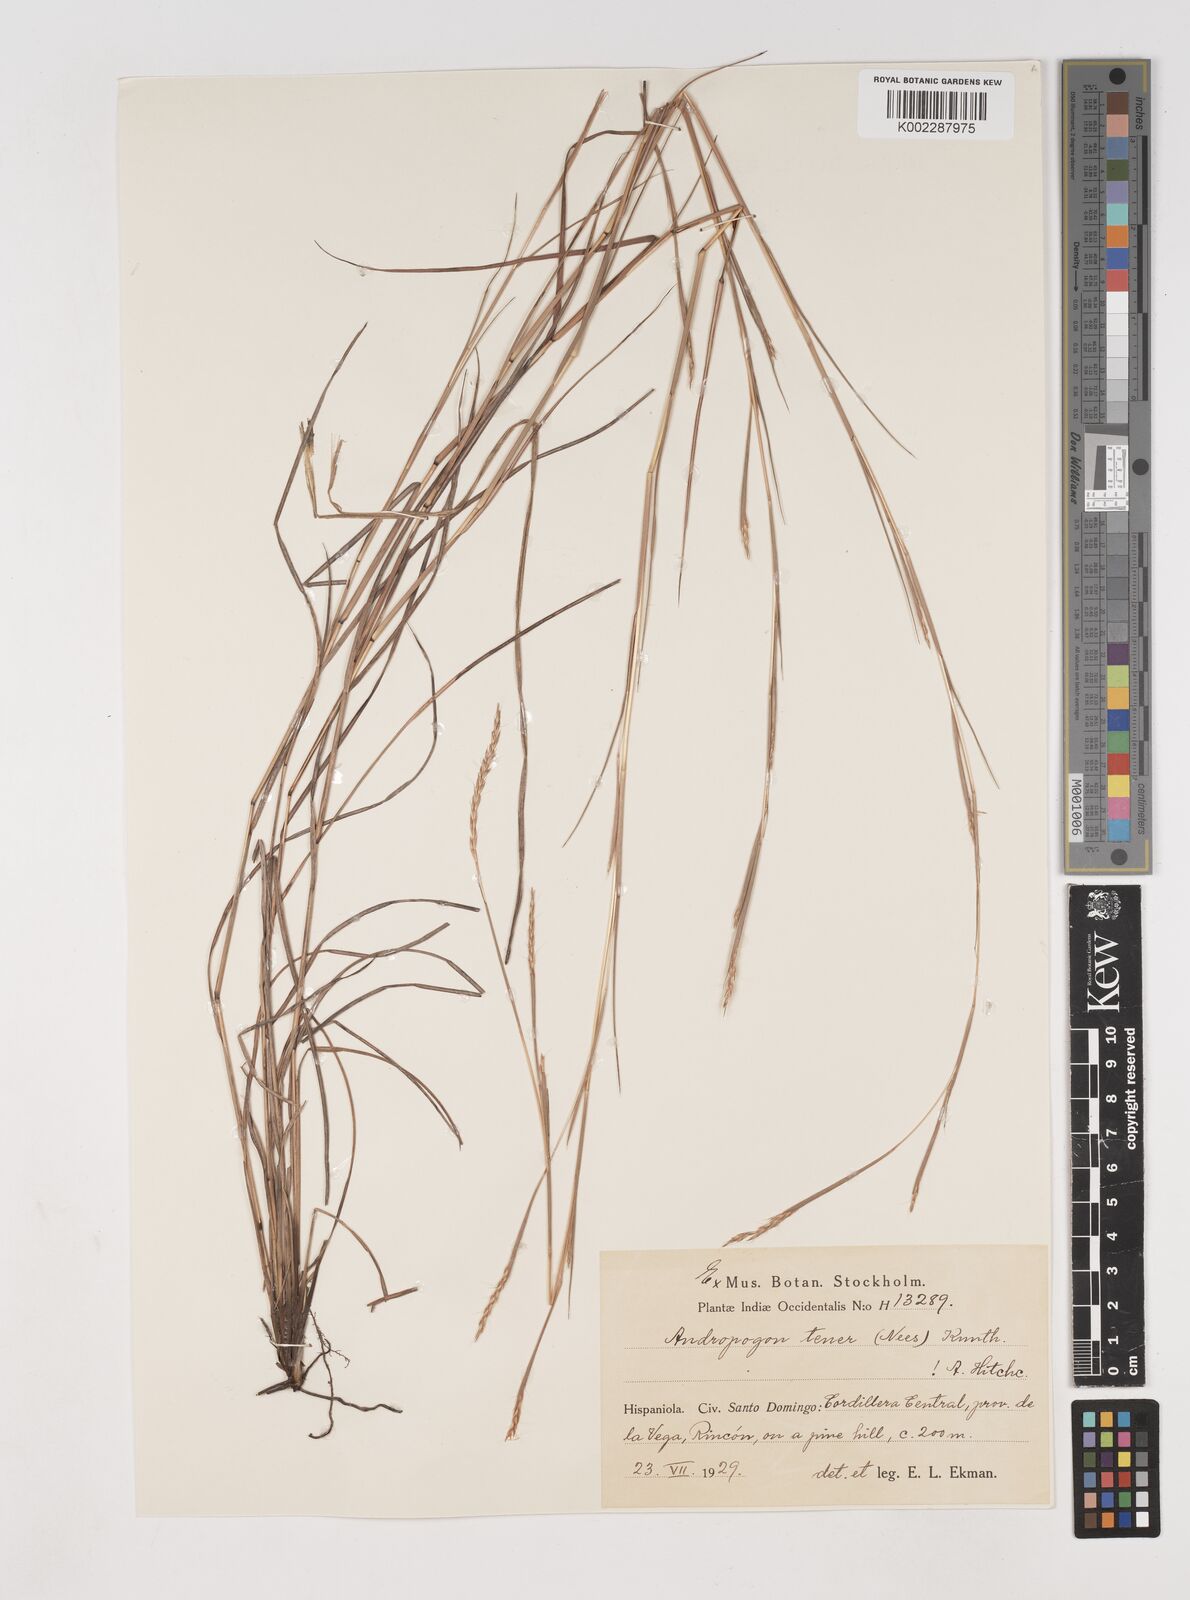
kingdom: Plantae
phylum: Tracheophyta
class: Liliopsida
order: Poales
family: Poaceae
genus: Andropogon
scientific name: Andropogon tener
